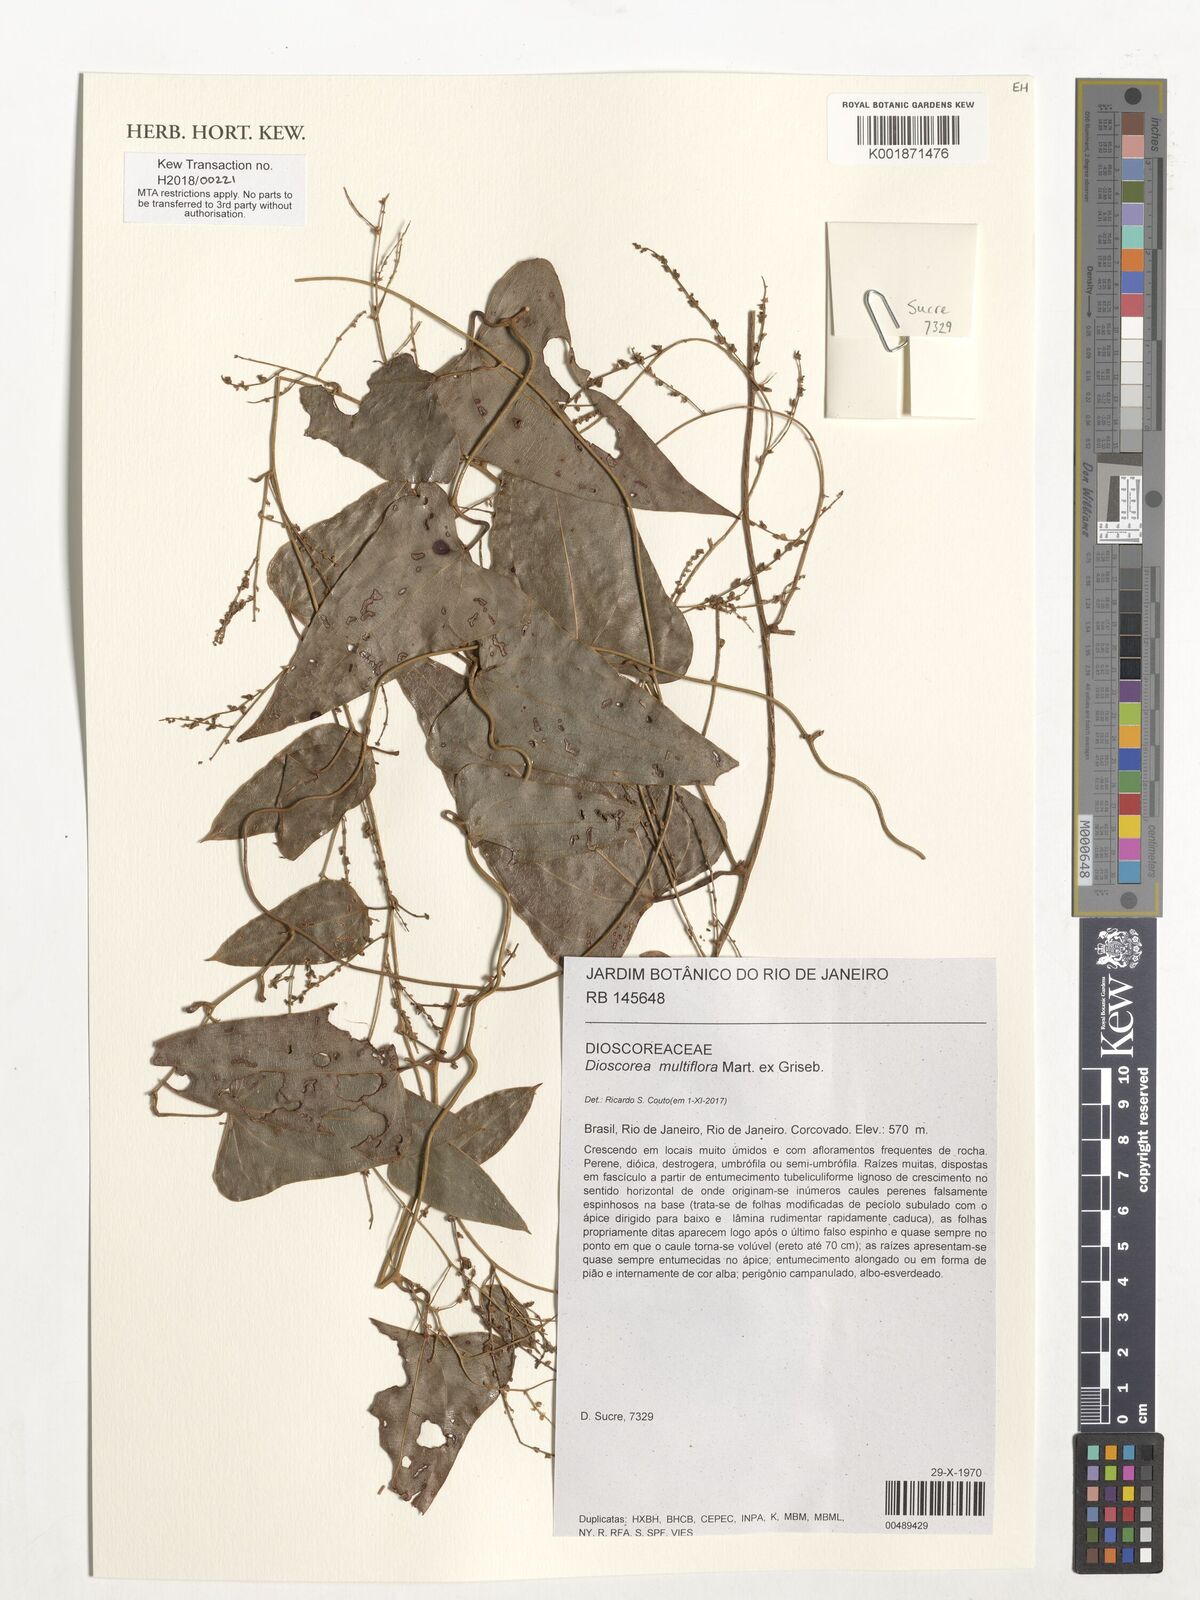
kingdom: Plantae
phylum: Tracheophyta
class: Liliopsida
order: Dioscoreales
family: Dioscoreaceae
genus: Dioscorea
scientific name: Dioscorea multiflora
